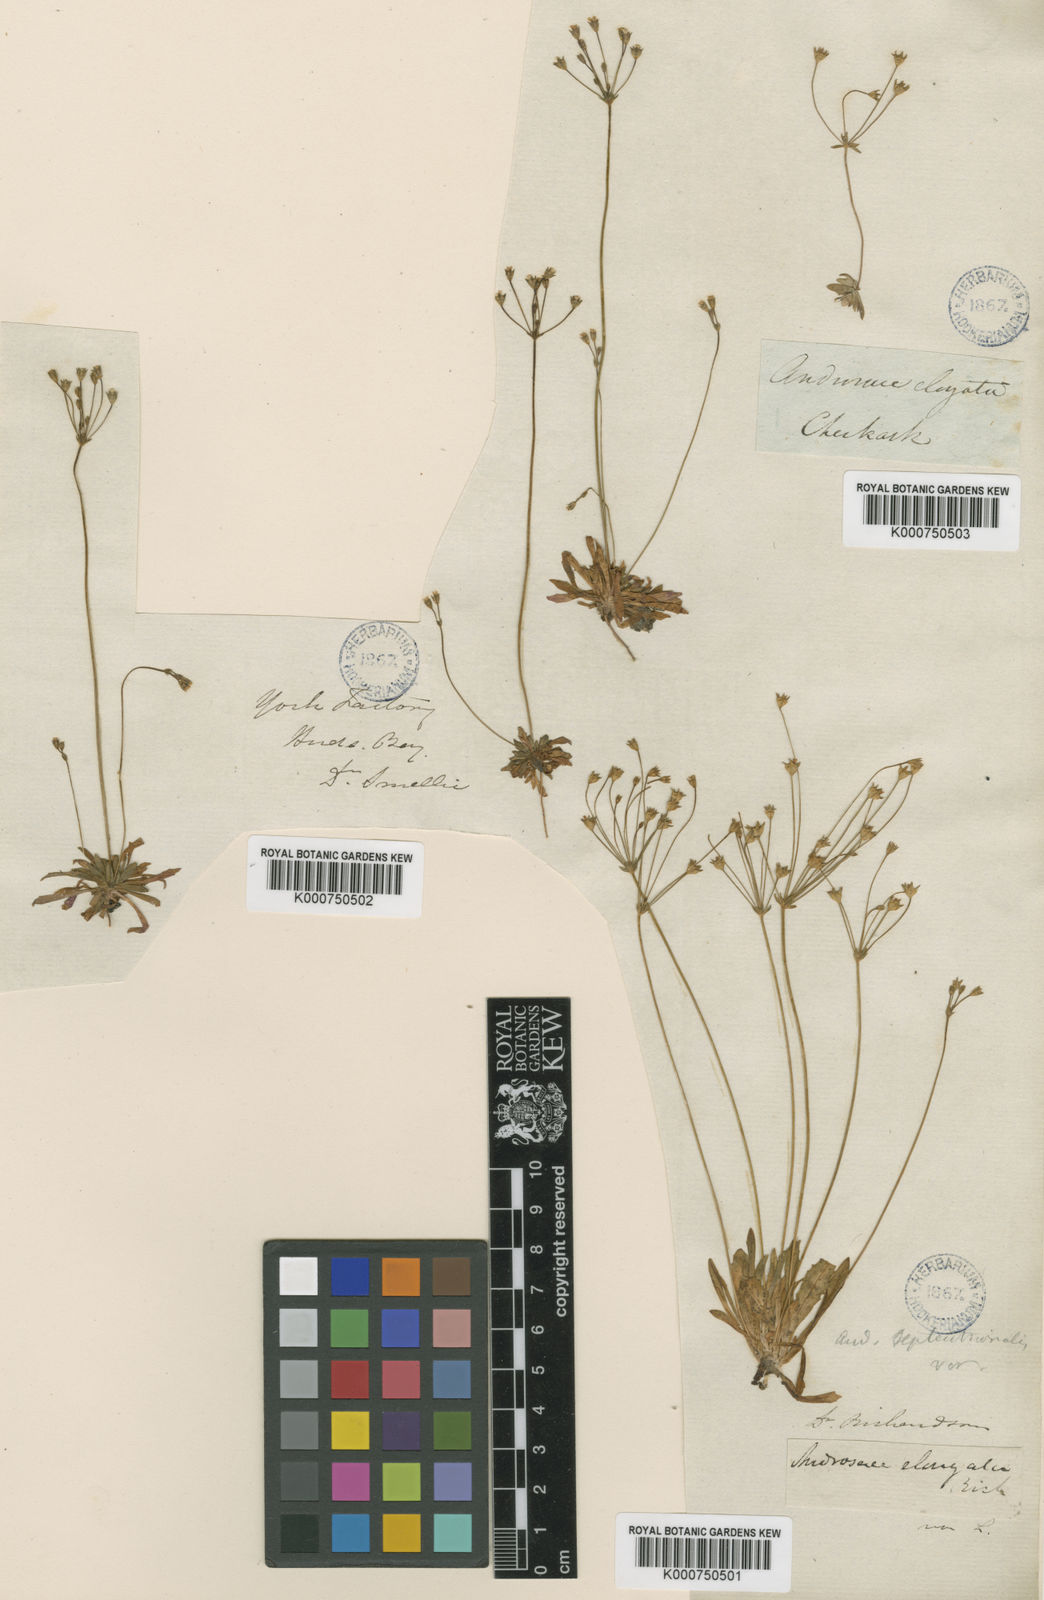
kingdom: Plantae
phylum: Tracheophyta
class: Magnoliopsida
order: Ericales
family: Primulaceae
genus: Androsace
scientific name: Androsace septentrionalis
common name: Hairy northern fairy-candelabra
